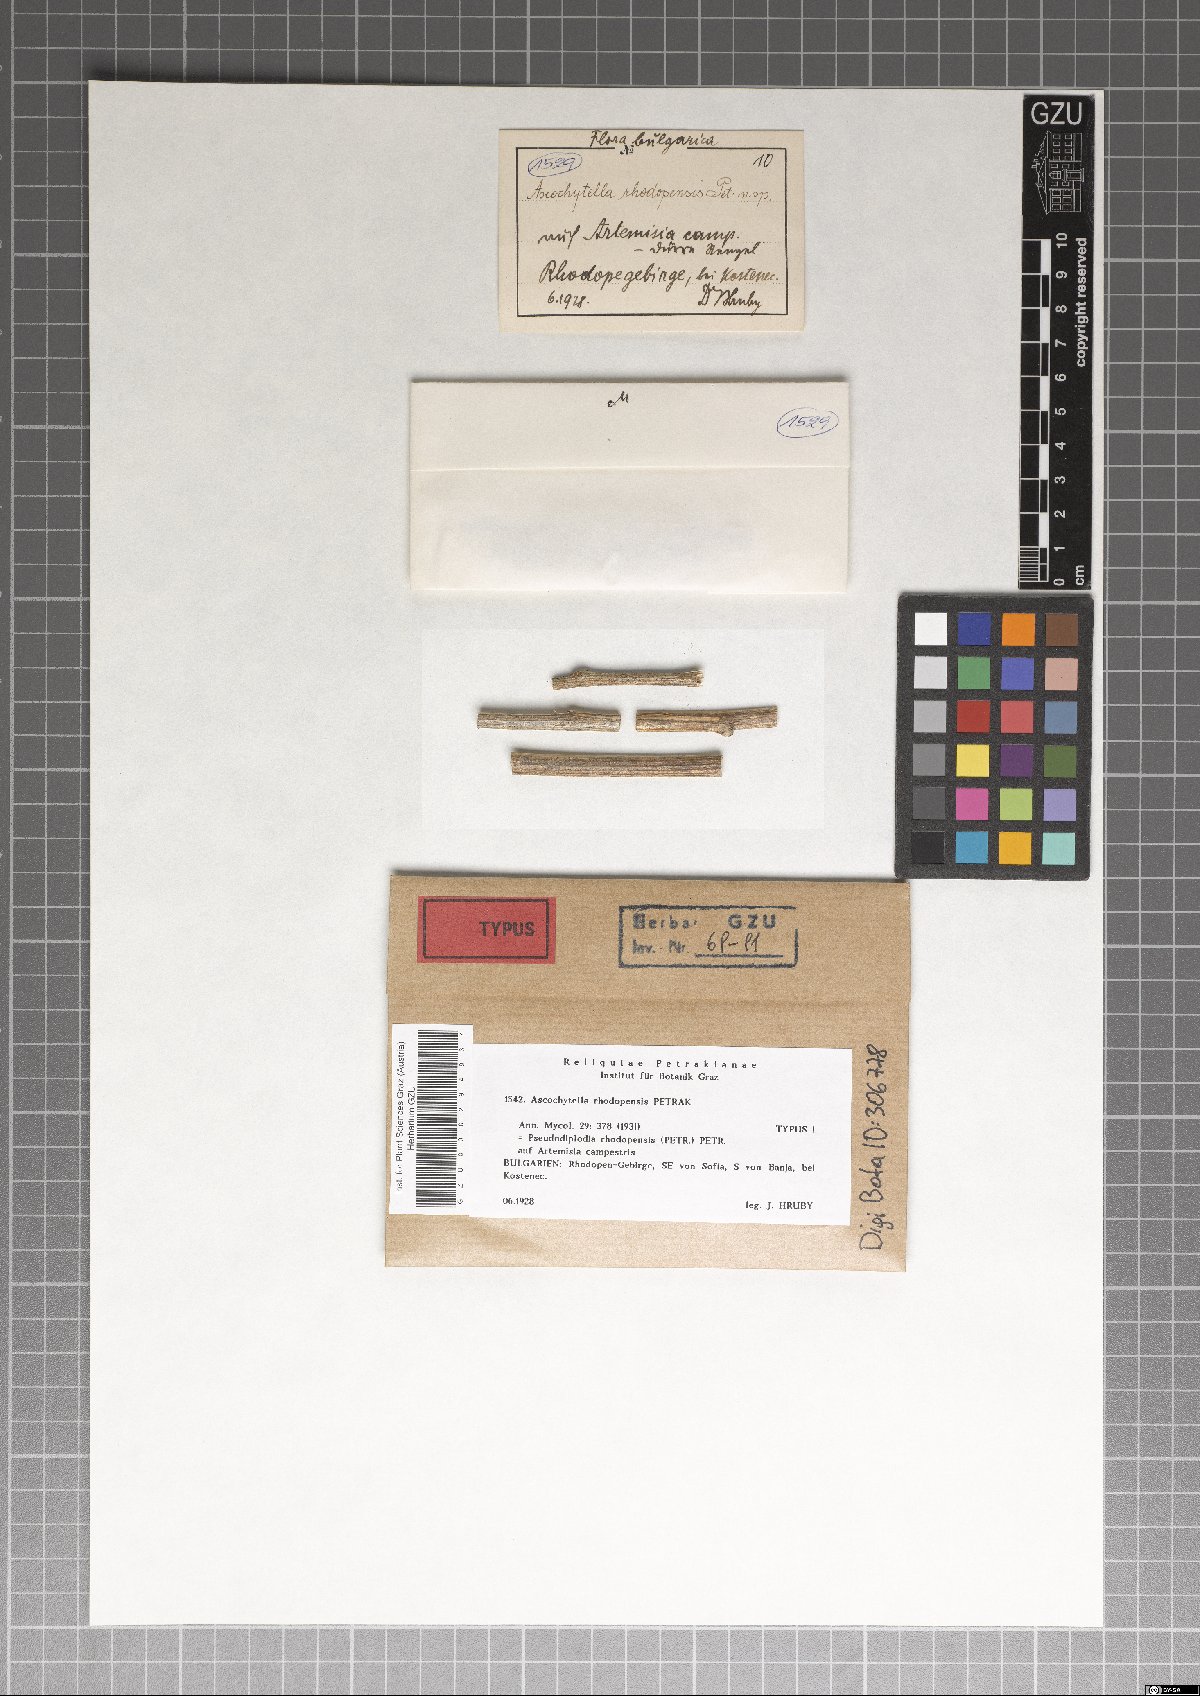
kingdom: Fungi
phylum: Ascomycota
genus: Pseudodiplodia
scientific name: Pseudodiplodia rhodopensis
